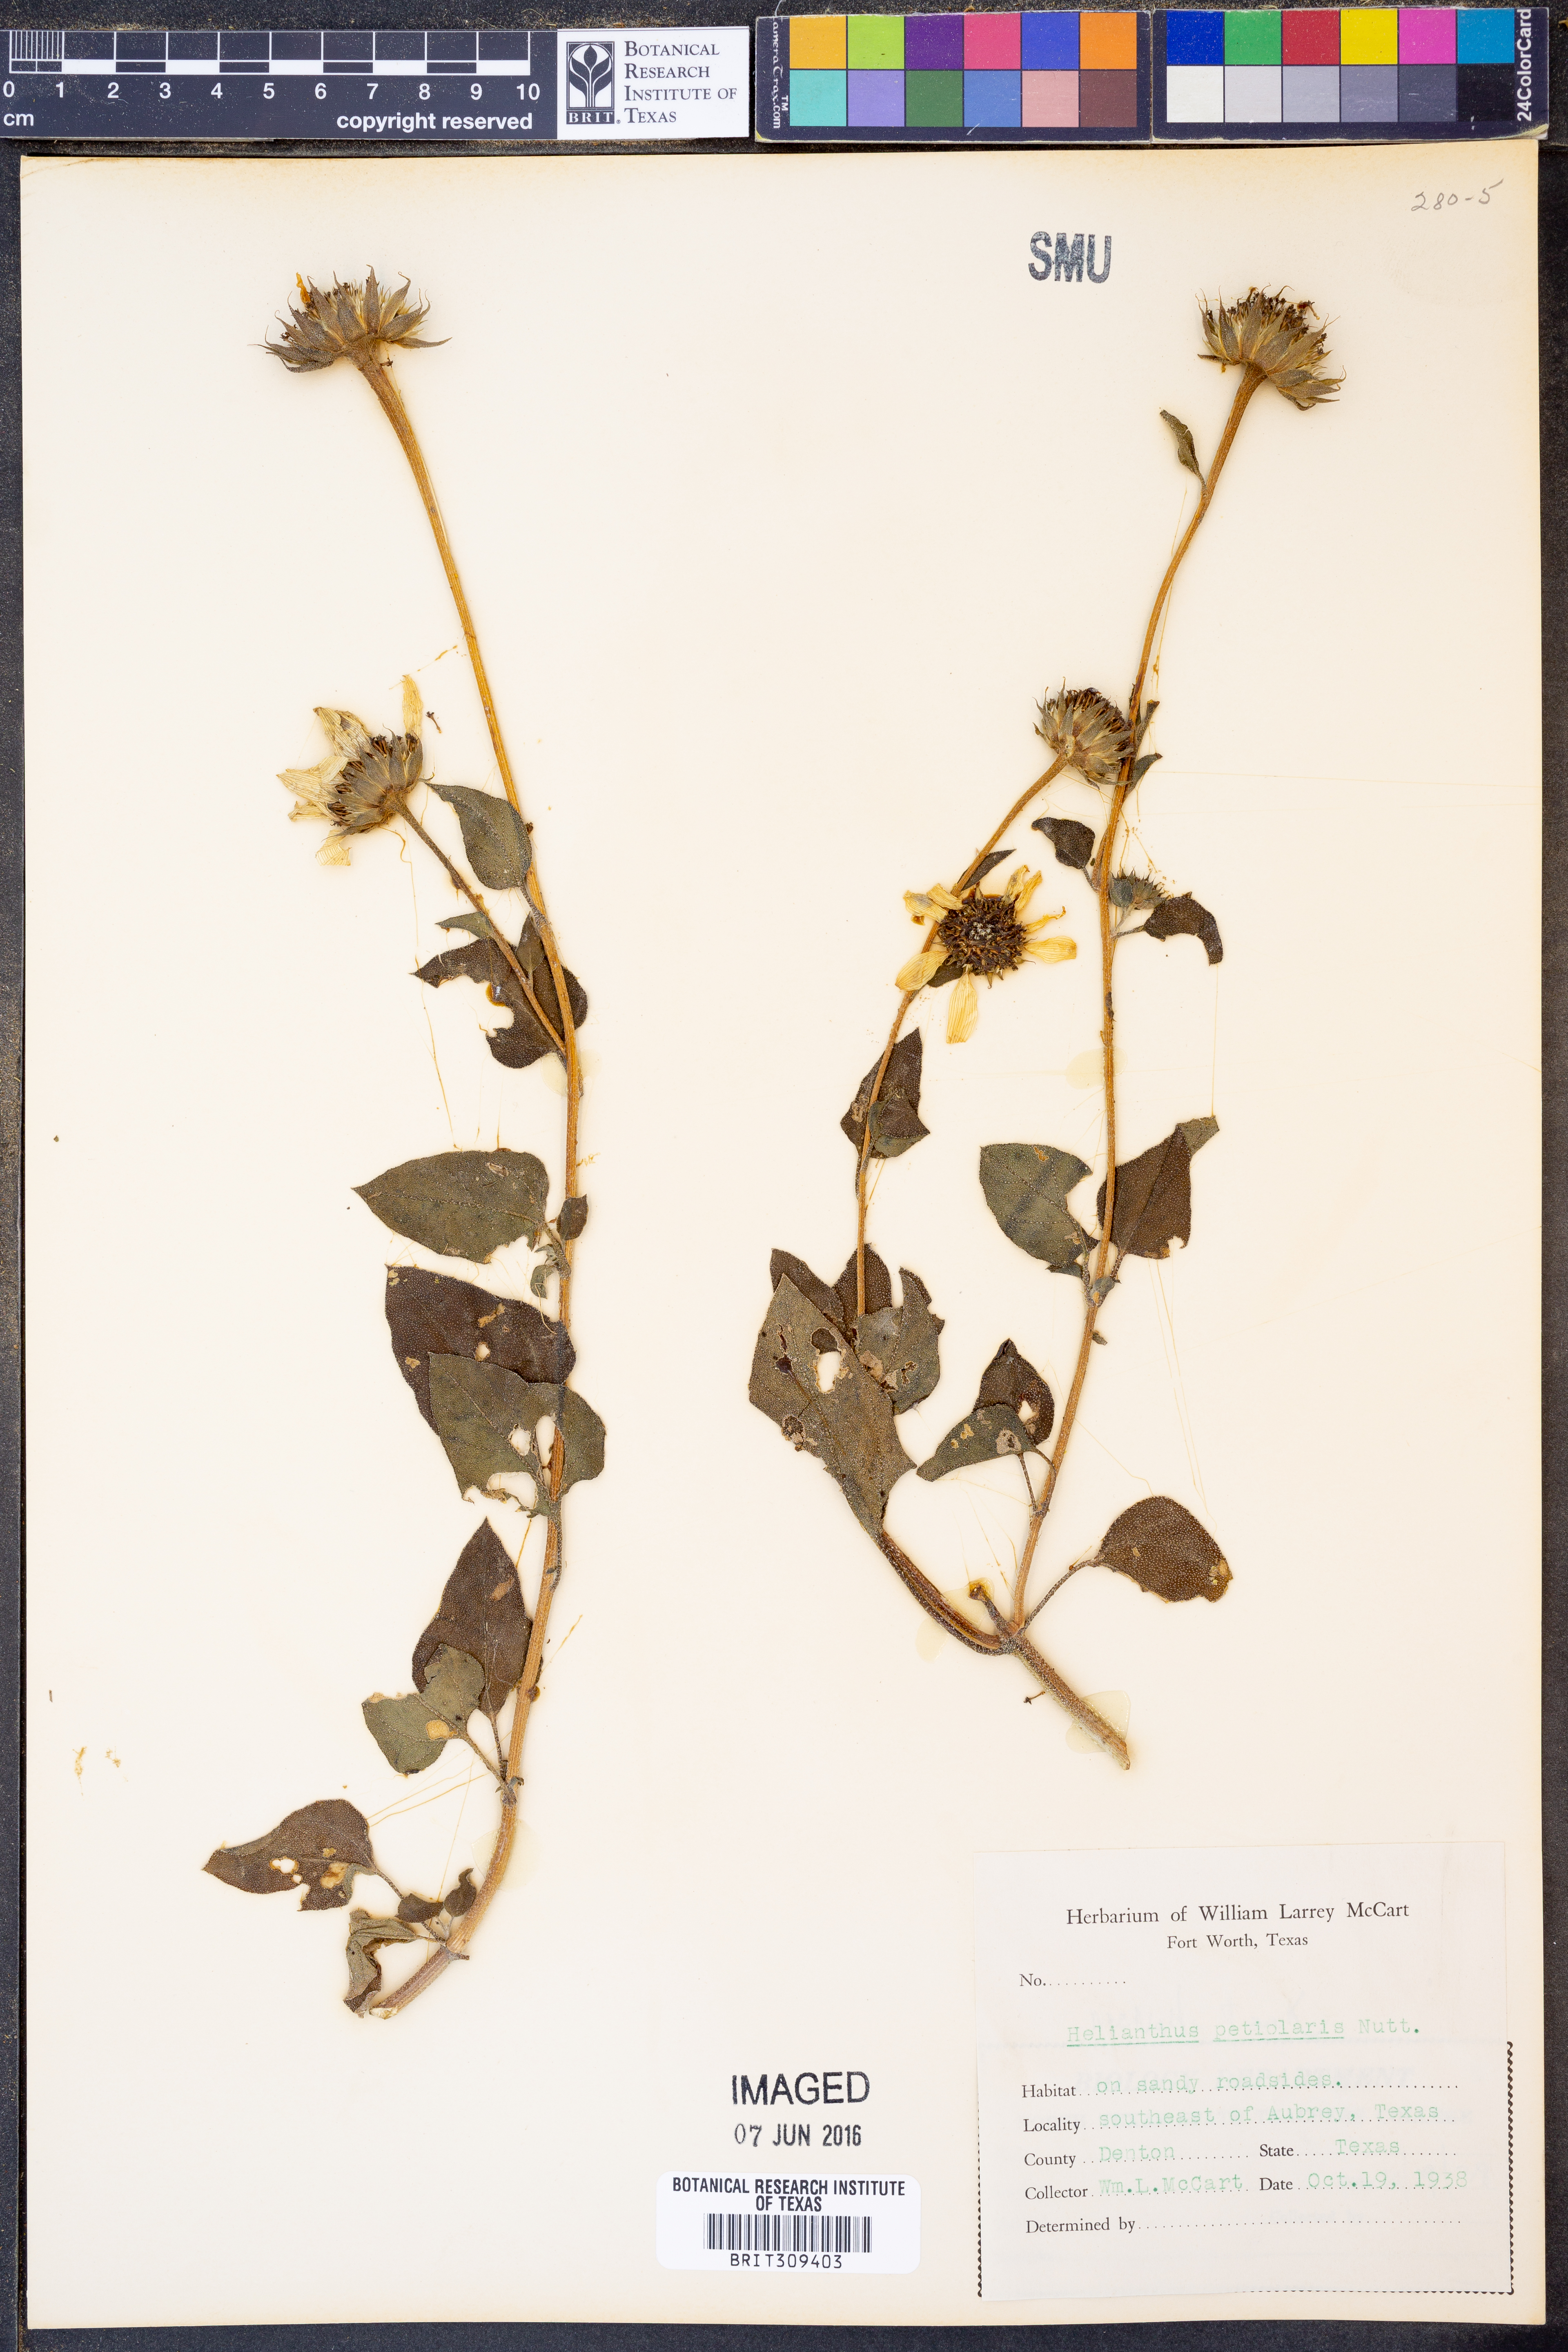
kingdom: Plantae
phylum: Tracheophyta
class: Magnoliopsida
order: Asterales
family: Asteraceae
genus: Helianthus
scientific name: Helianthus petiolaris
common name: Lesser sunflower
